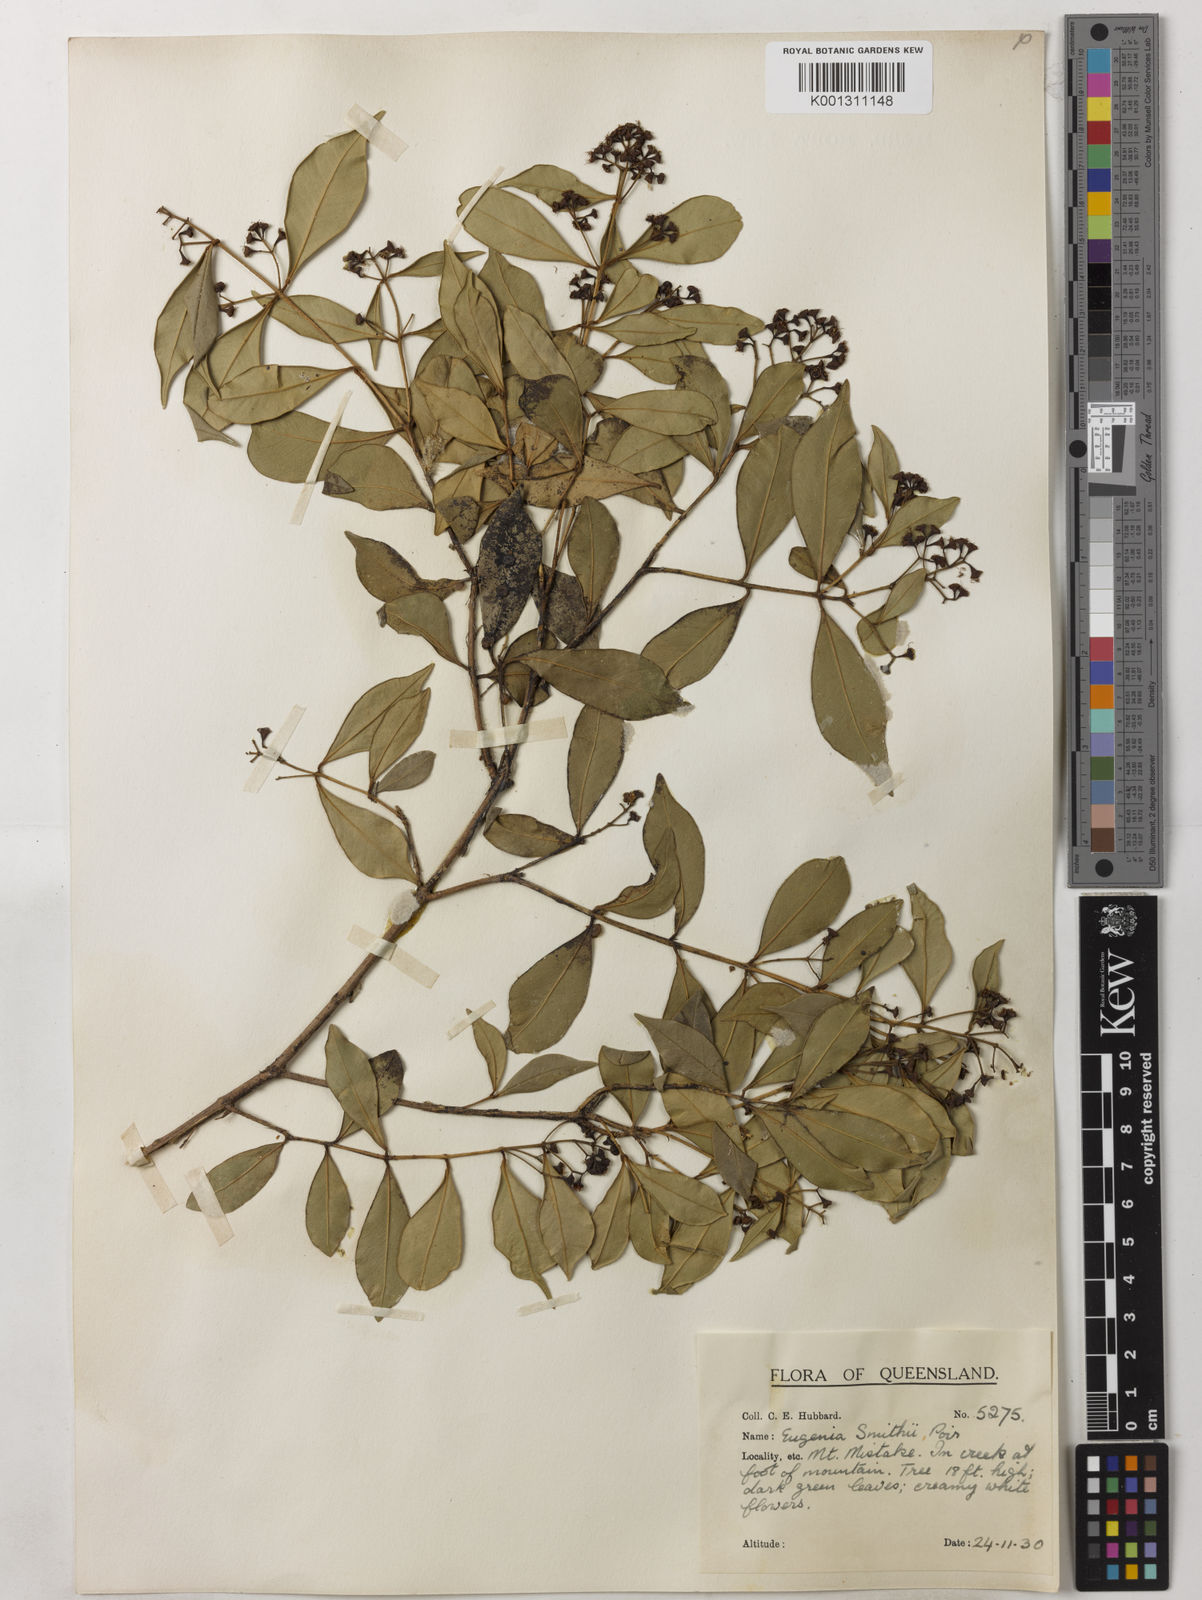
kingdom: Plantae
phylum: Tracheophyta
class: Magnoliopsida
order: Myrtales
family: Myrtaceae
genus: Syzygium
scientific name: Syzygium smithii
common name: Lilly-pilly
